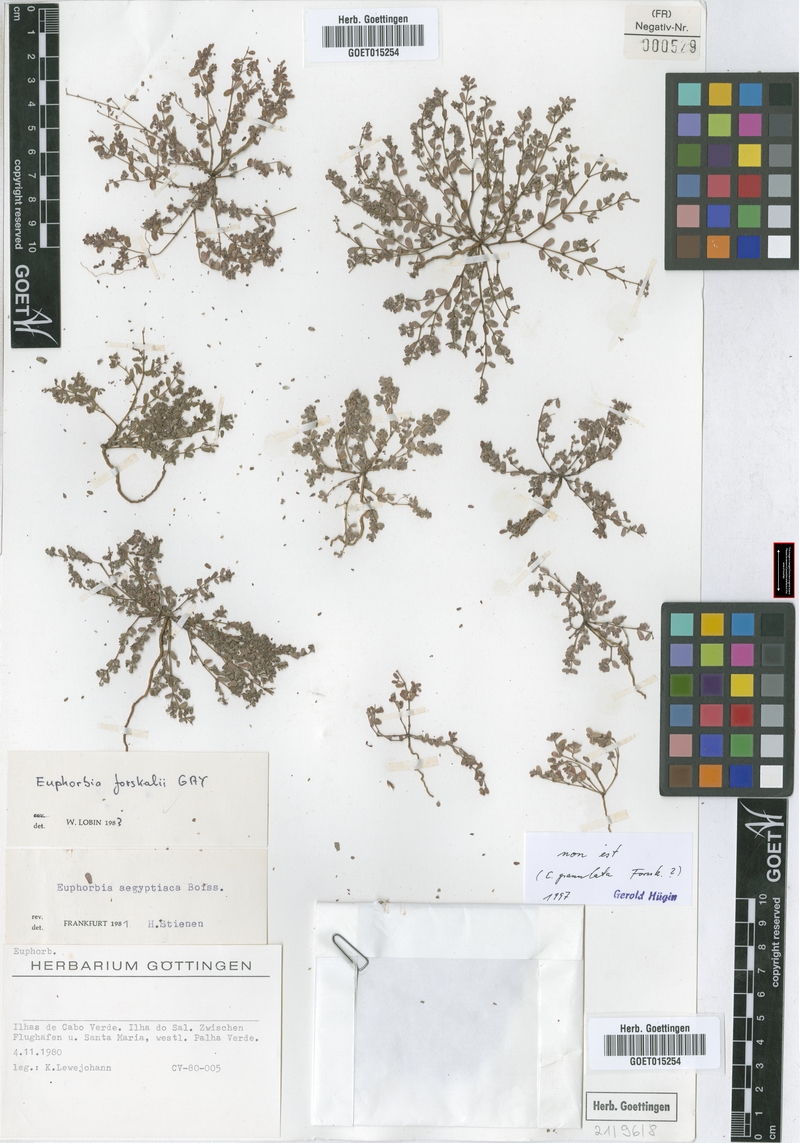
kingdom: Plantae
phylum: Tracheophyta
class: Magnoliopsida
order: Malpighiales
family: Euphorbiaceae
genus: Euphorbia
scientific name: Euphorbia granulata
